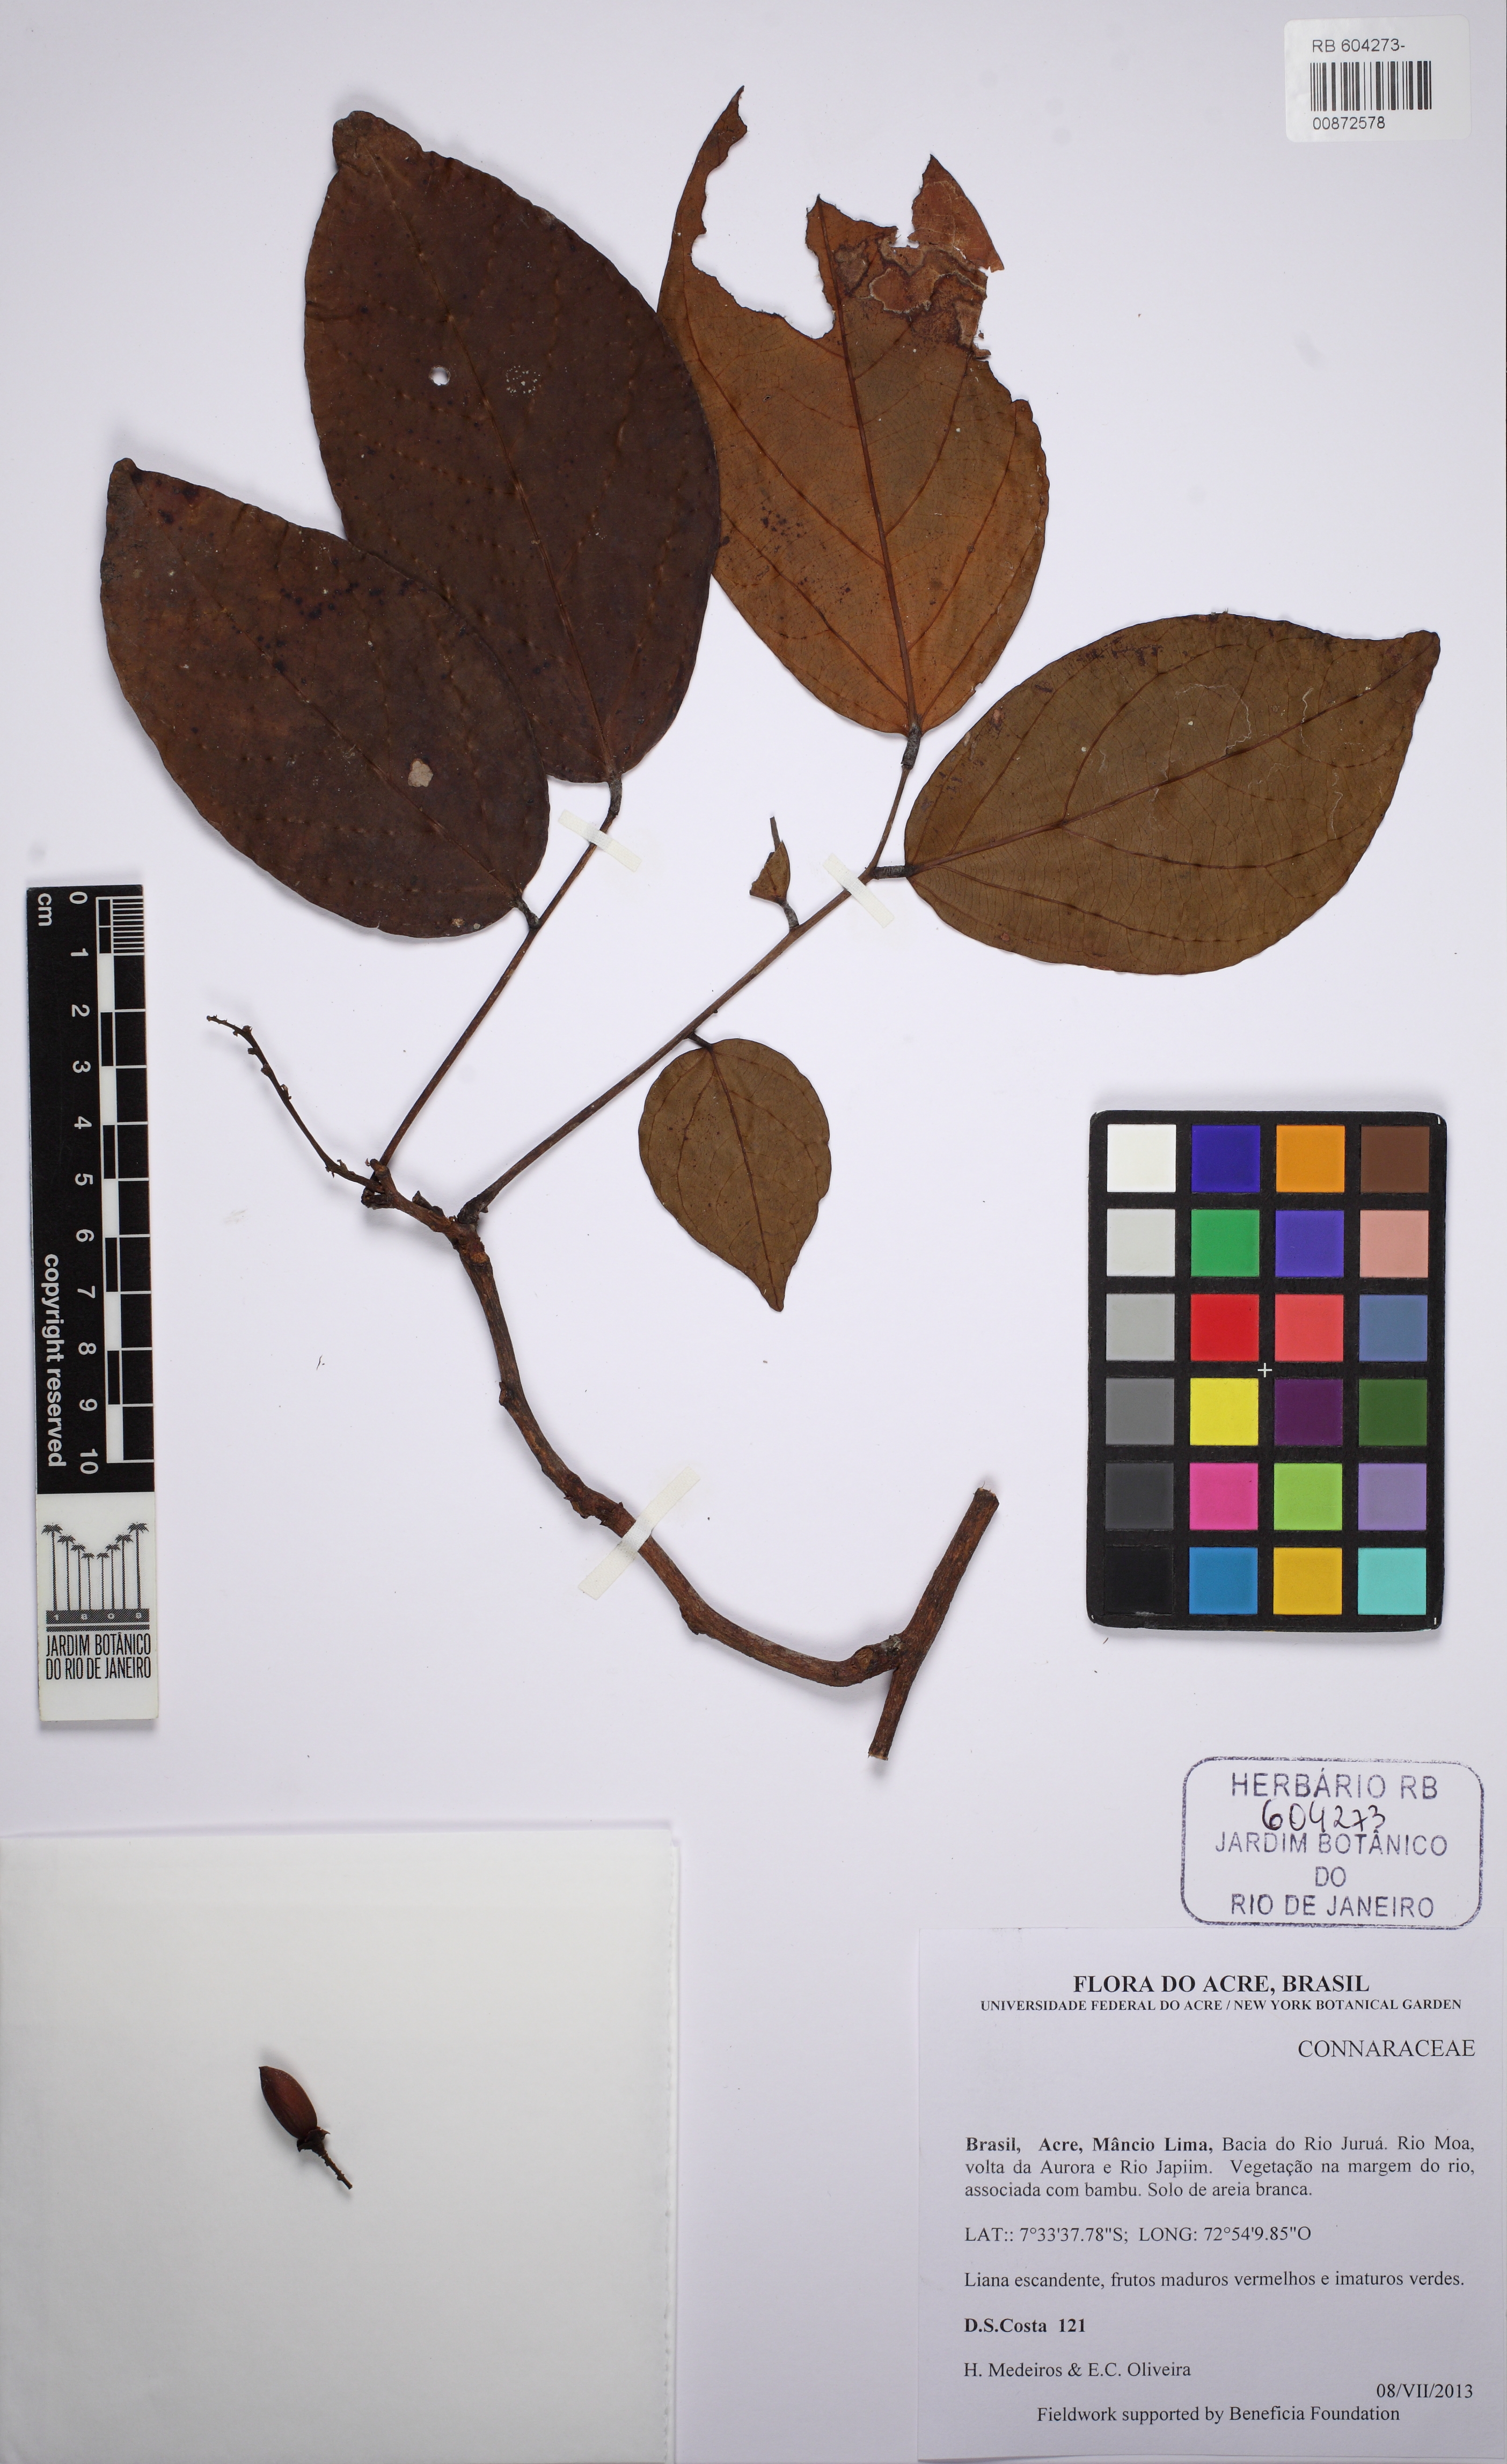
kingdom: Plantae
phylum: Tracheophyta
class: Magnoliopsida
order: Oxalidales
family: Connaraceae
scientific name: Connaraceae
